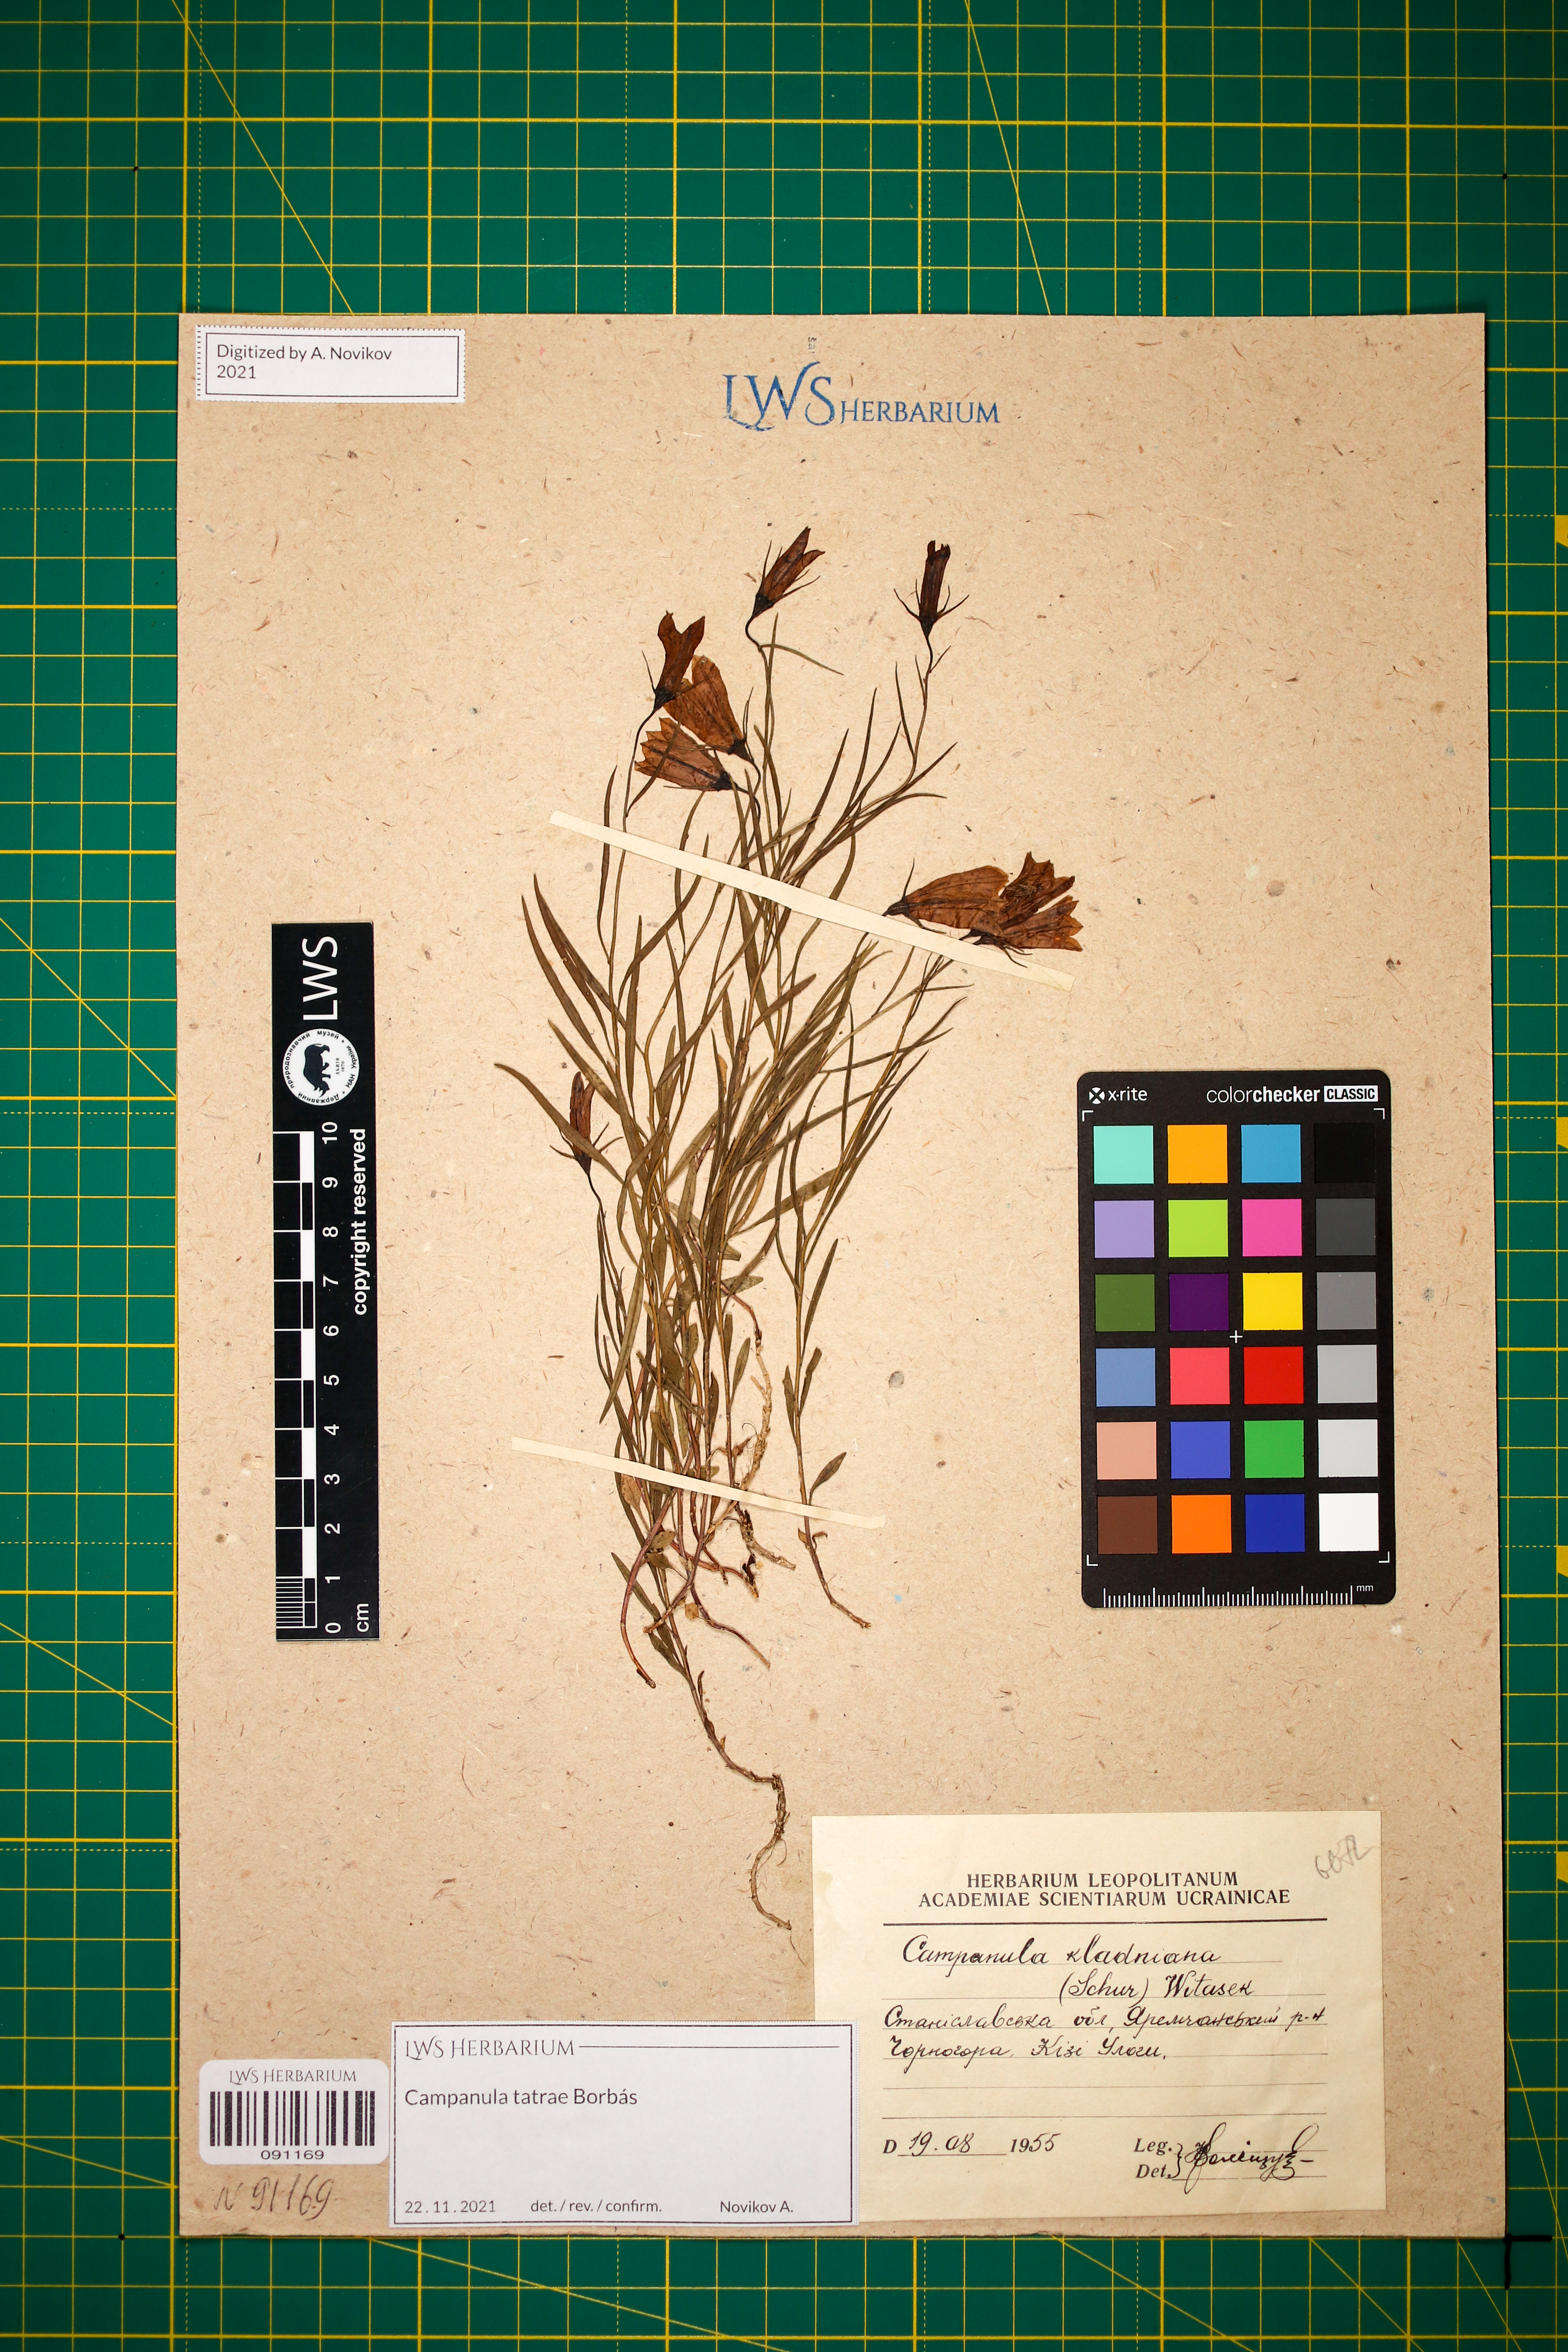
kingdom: Plantae
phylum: Tracheophyta
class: Magnoliopsida
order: Asterales
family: Campanulaceae
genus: Campanula
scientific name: Campanula kladniana
